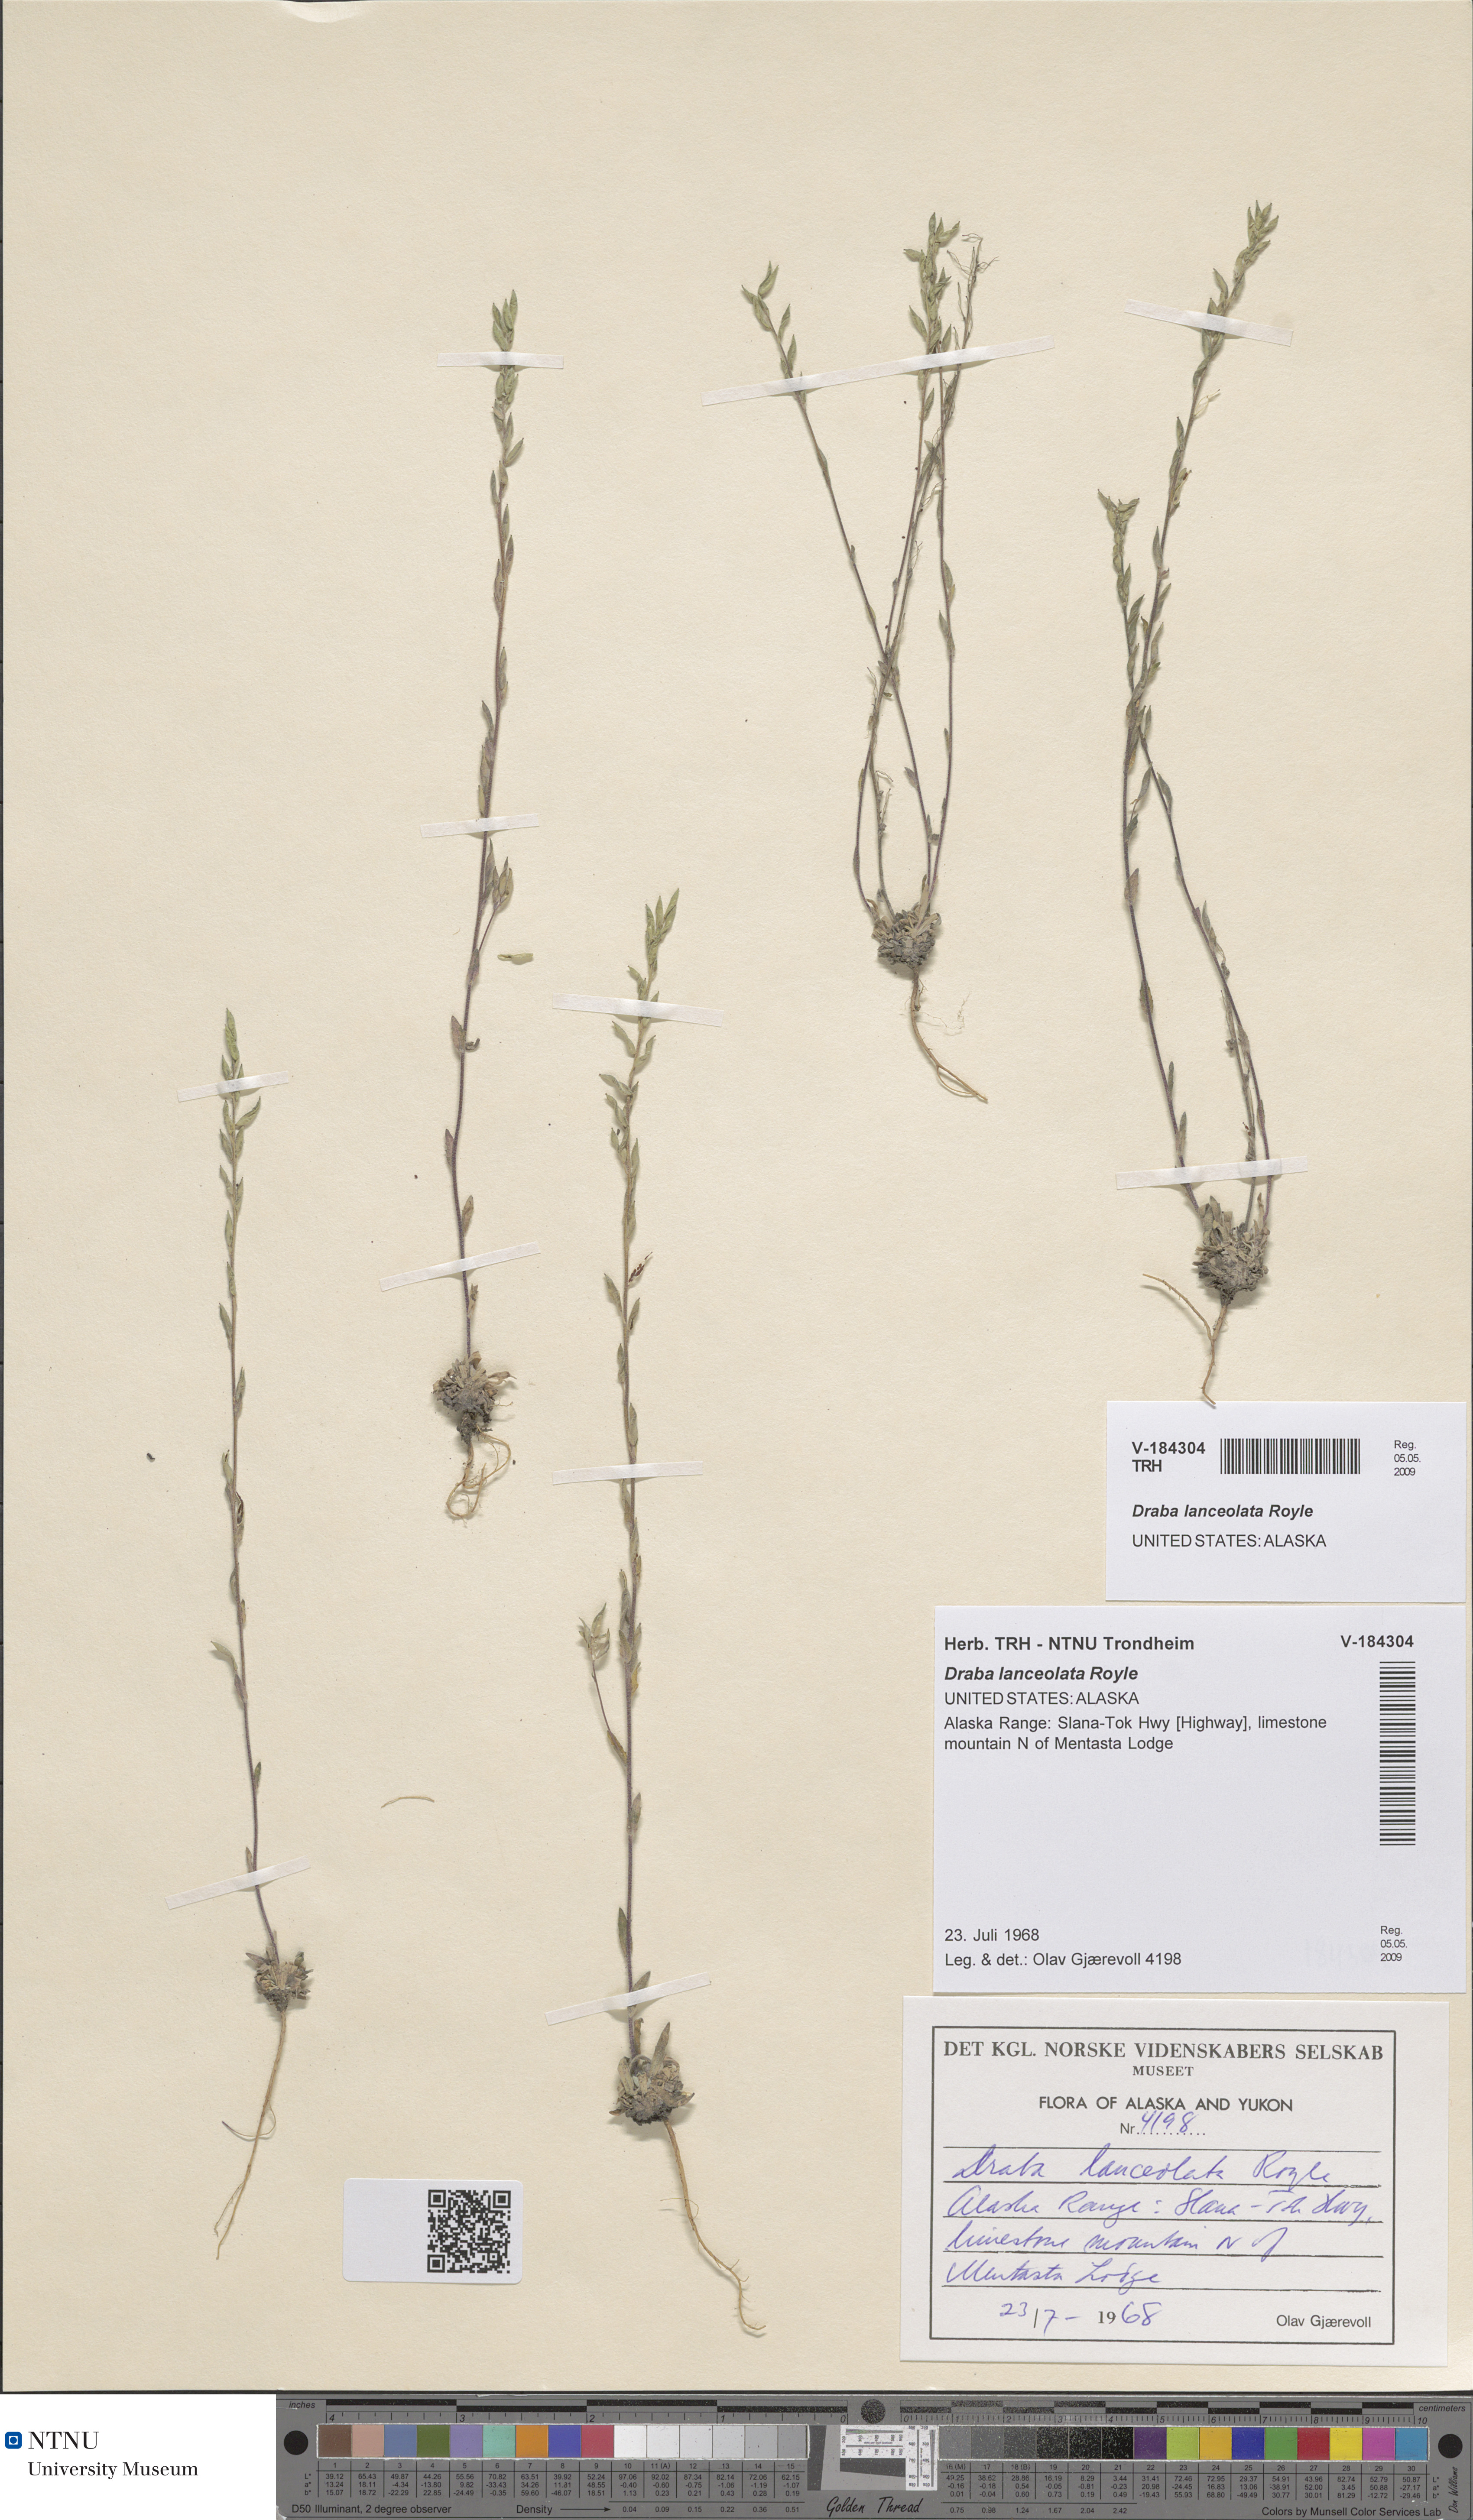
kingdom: Plantae
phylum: Tracheophyta
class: Magnoliopsida
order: Brassicales
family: Brassicaceae
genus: Draba
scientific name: Draba lanceolata
